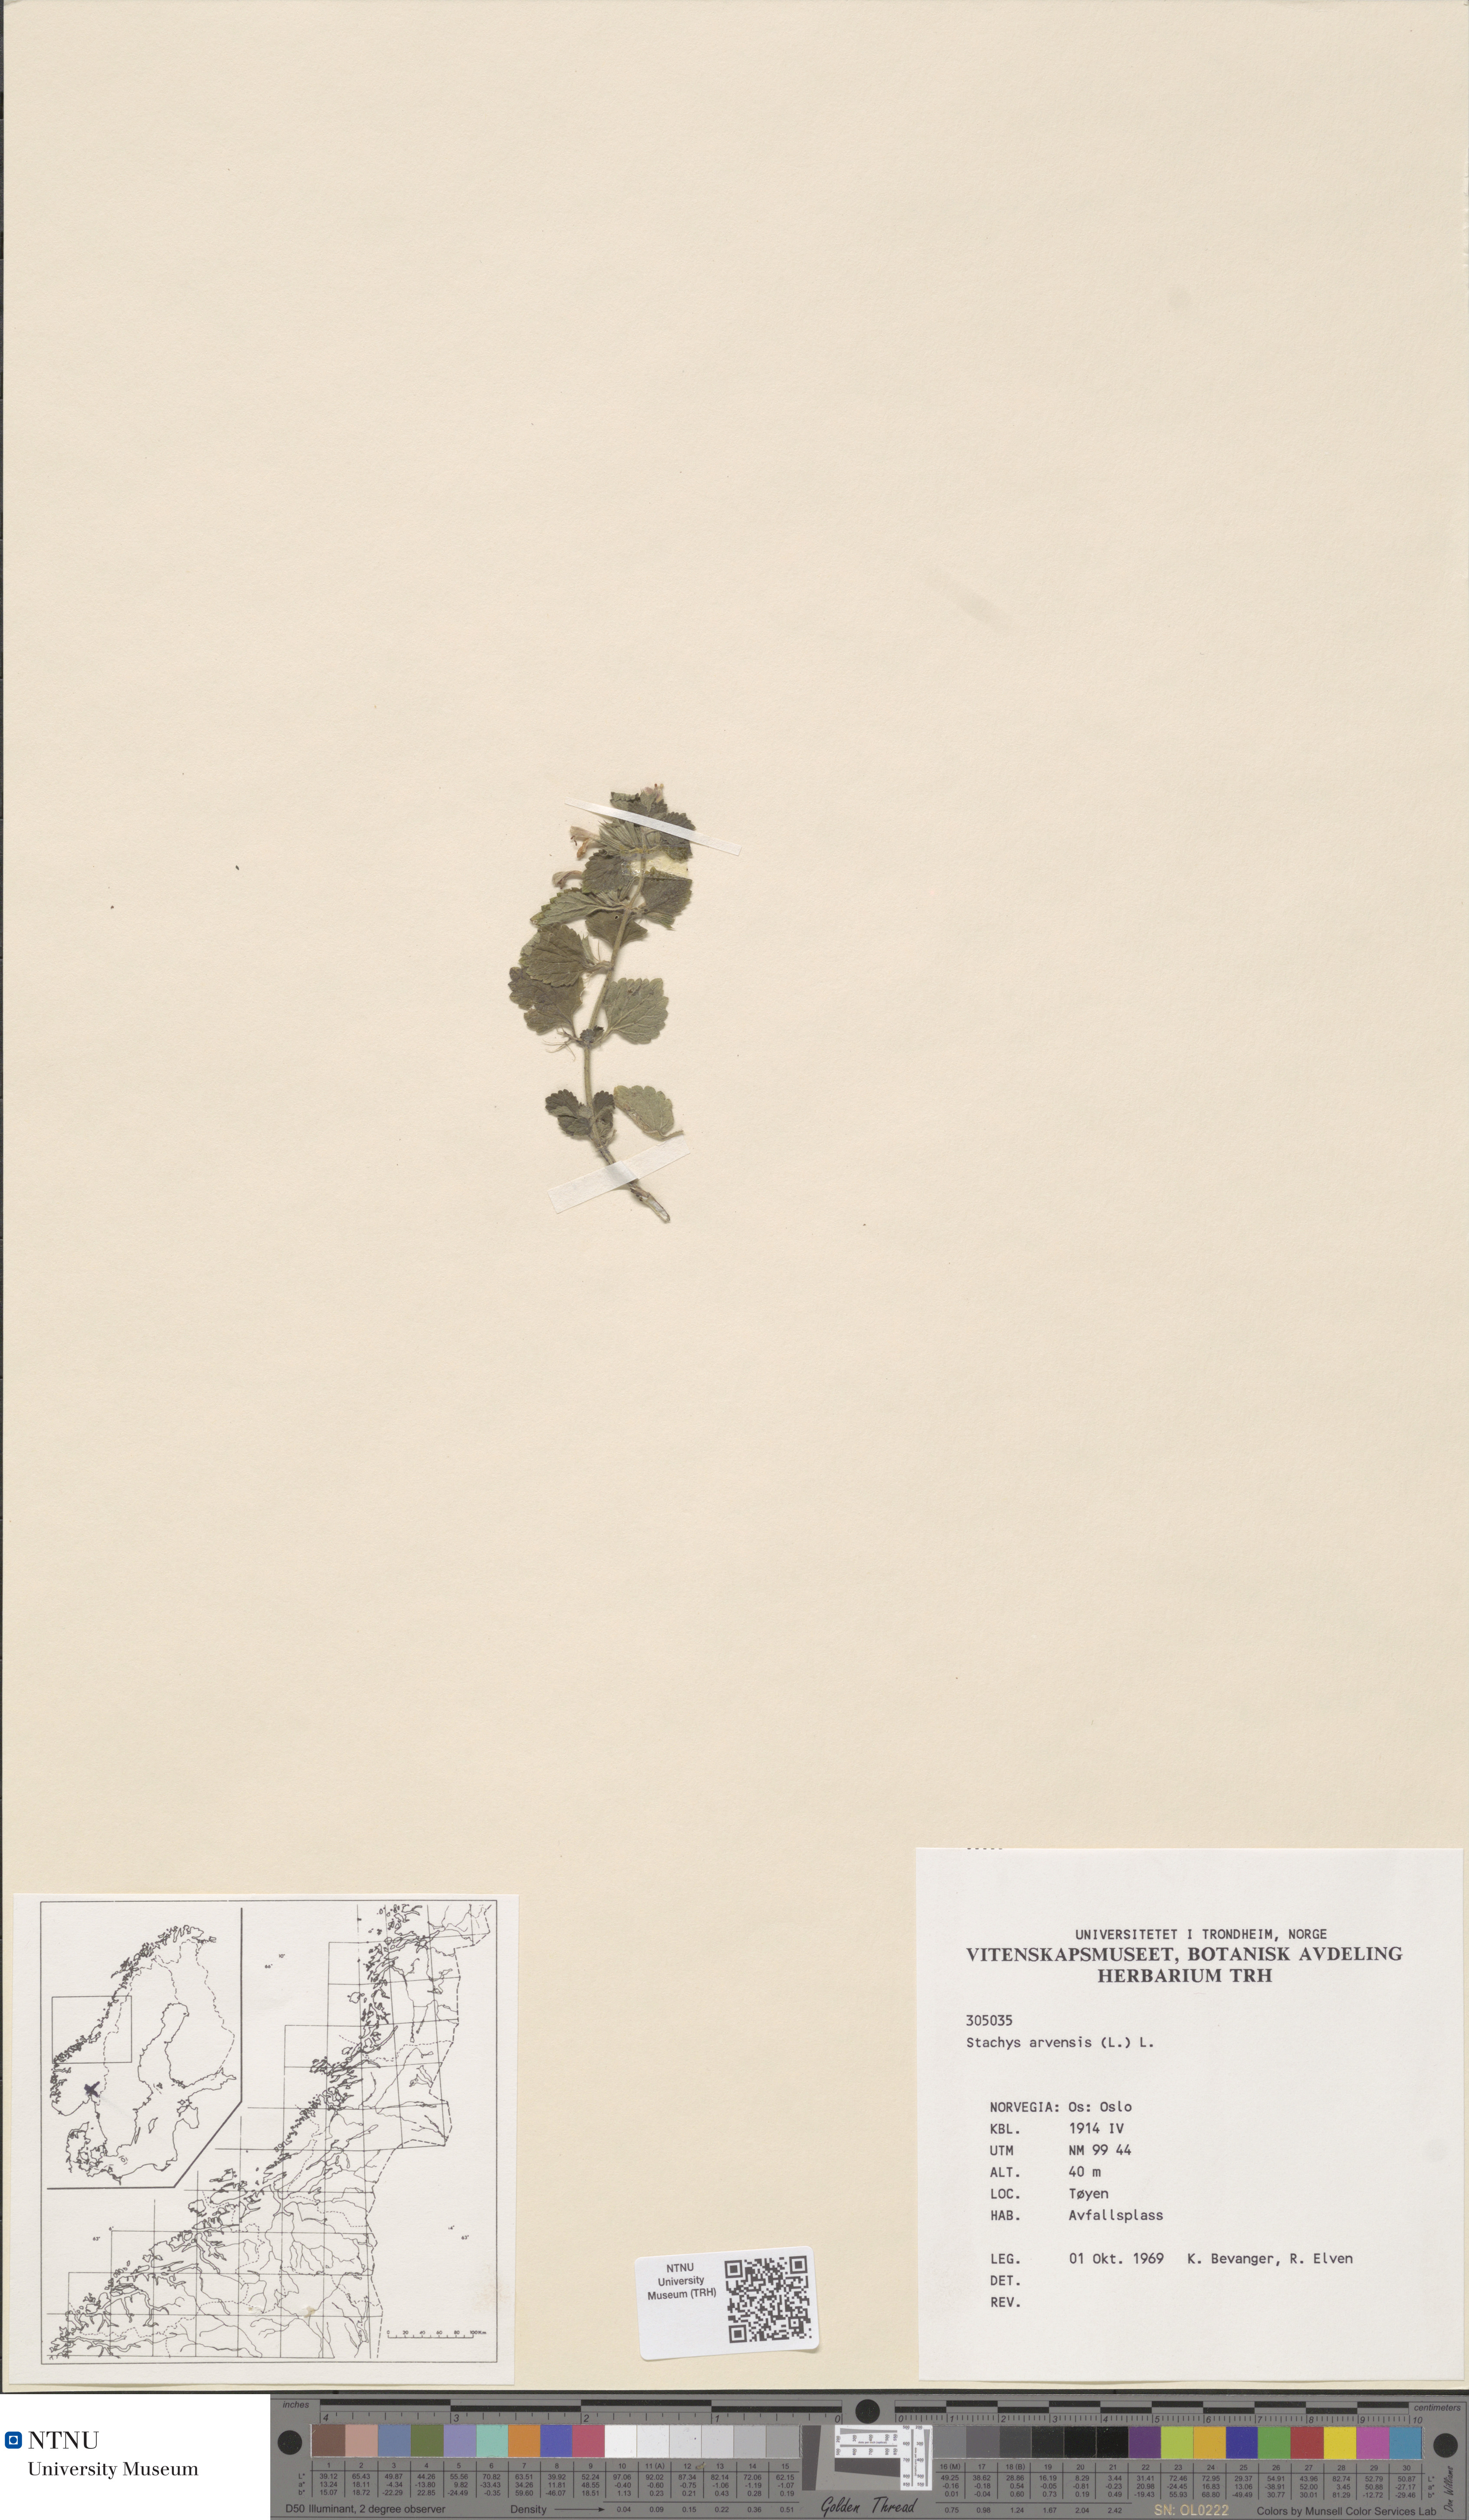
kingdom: Plantae
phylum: Tracheophyta
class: Magnoliopsida
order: Lamiales
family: Lamiaceae
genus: Stachys
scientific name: Stachys arvensis
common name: Field woundwort
